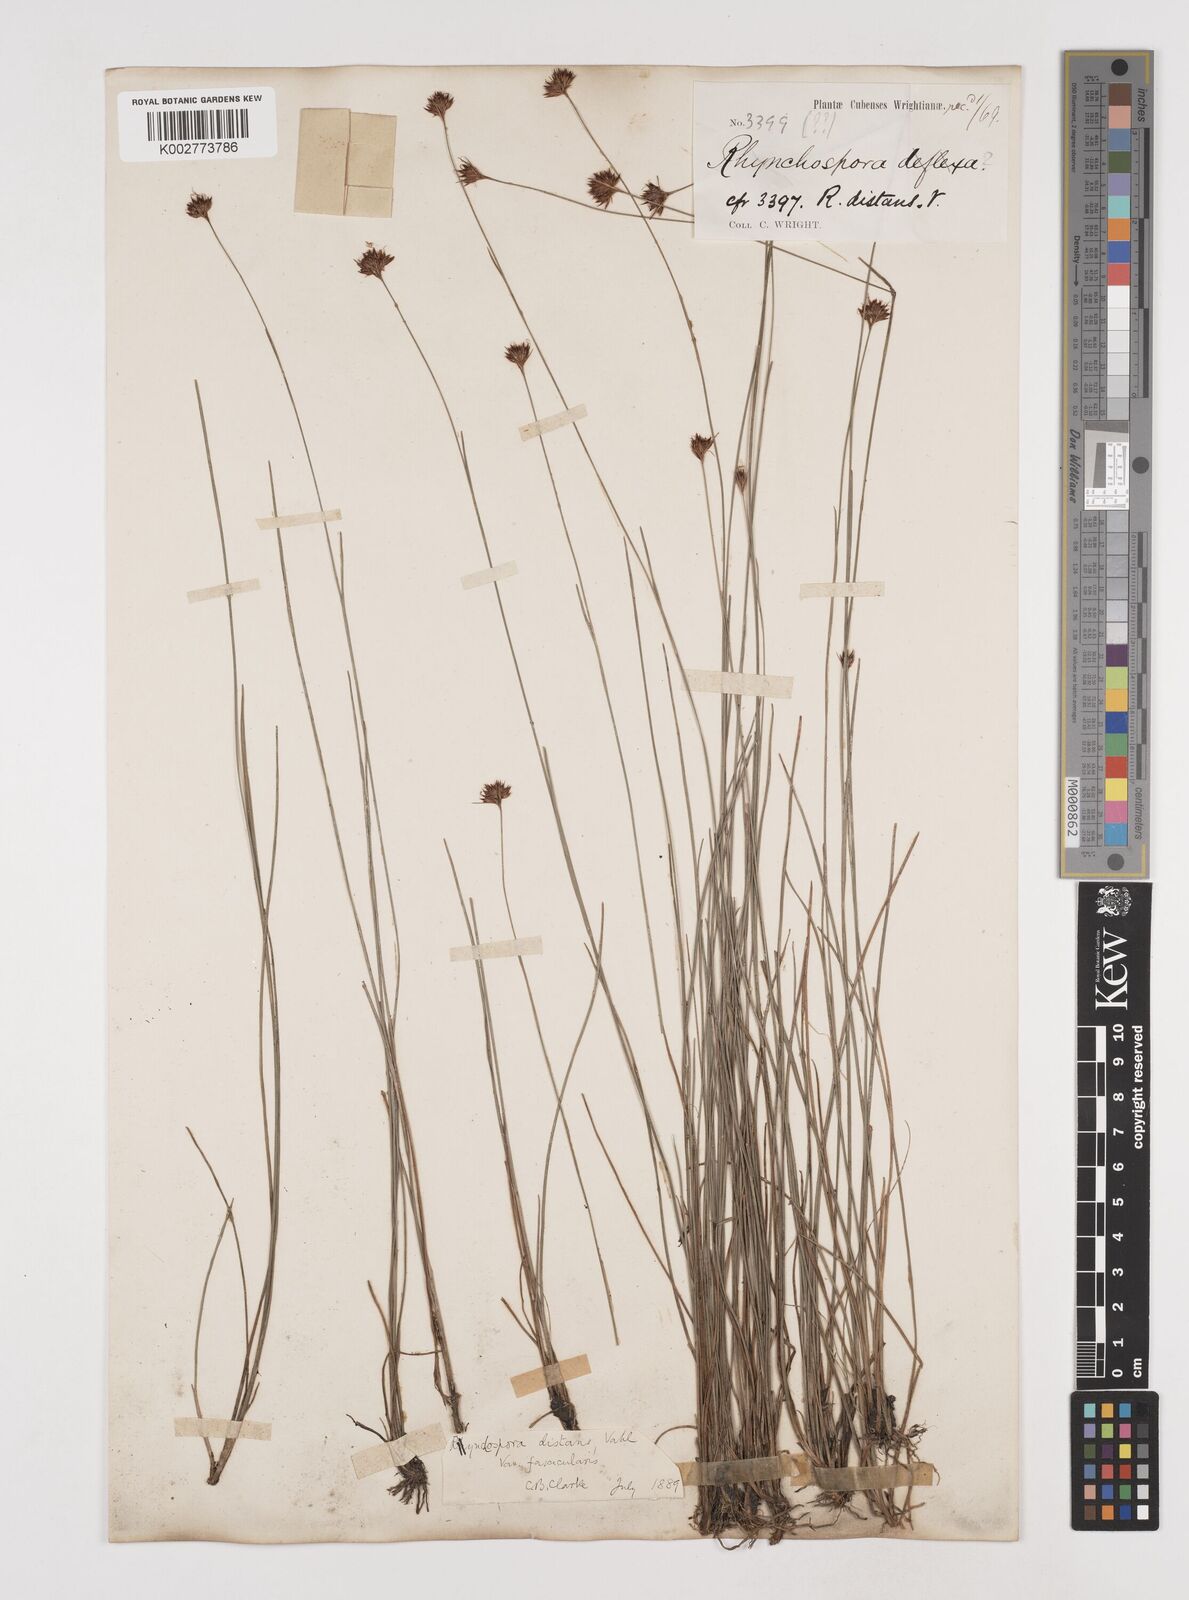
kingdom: Plantae
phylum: Tracheophyta
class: Liliopsida
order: Poales
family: Cyperaceae
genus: Rhynchospora
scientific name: Rhynchospora fascicularis
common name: Fascicled beak sedge
